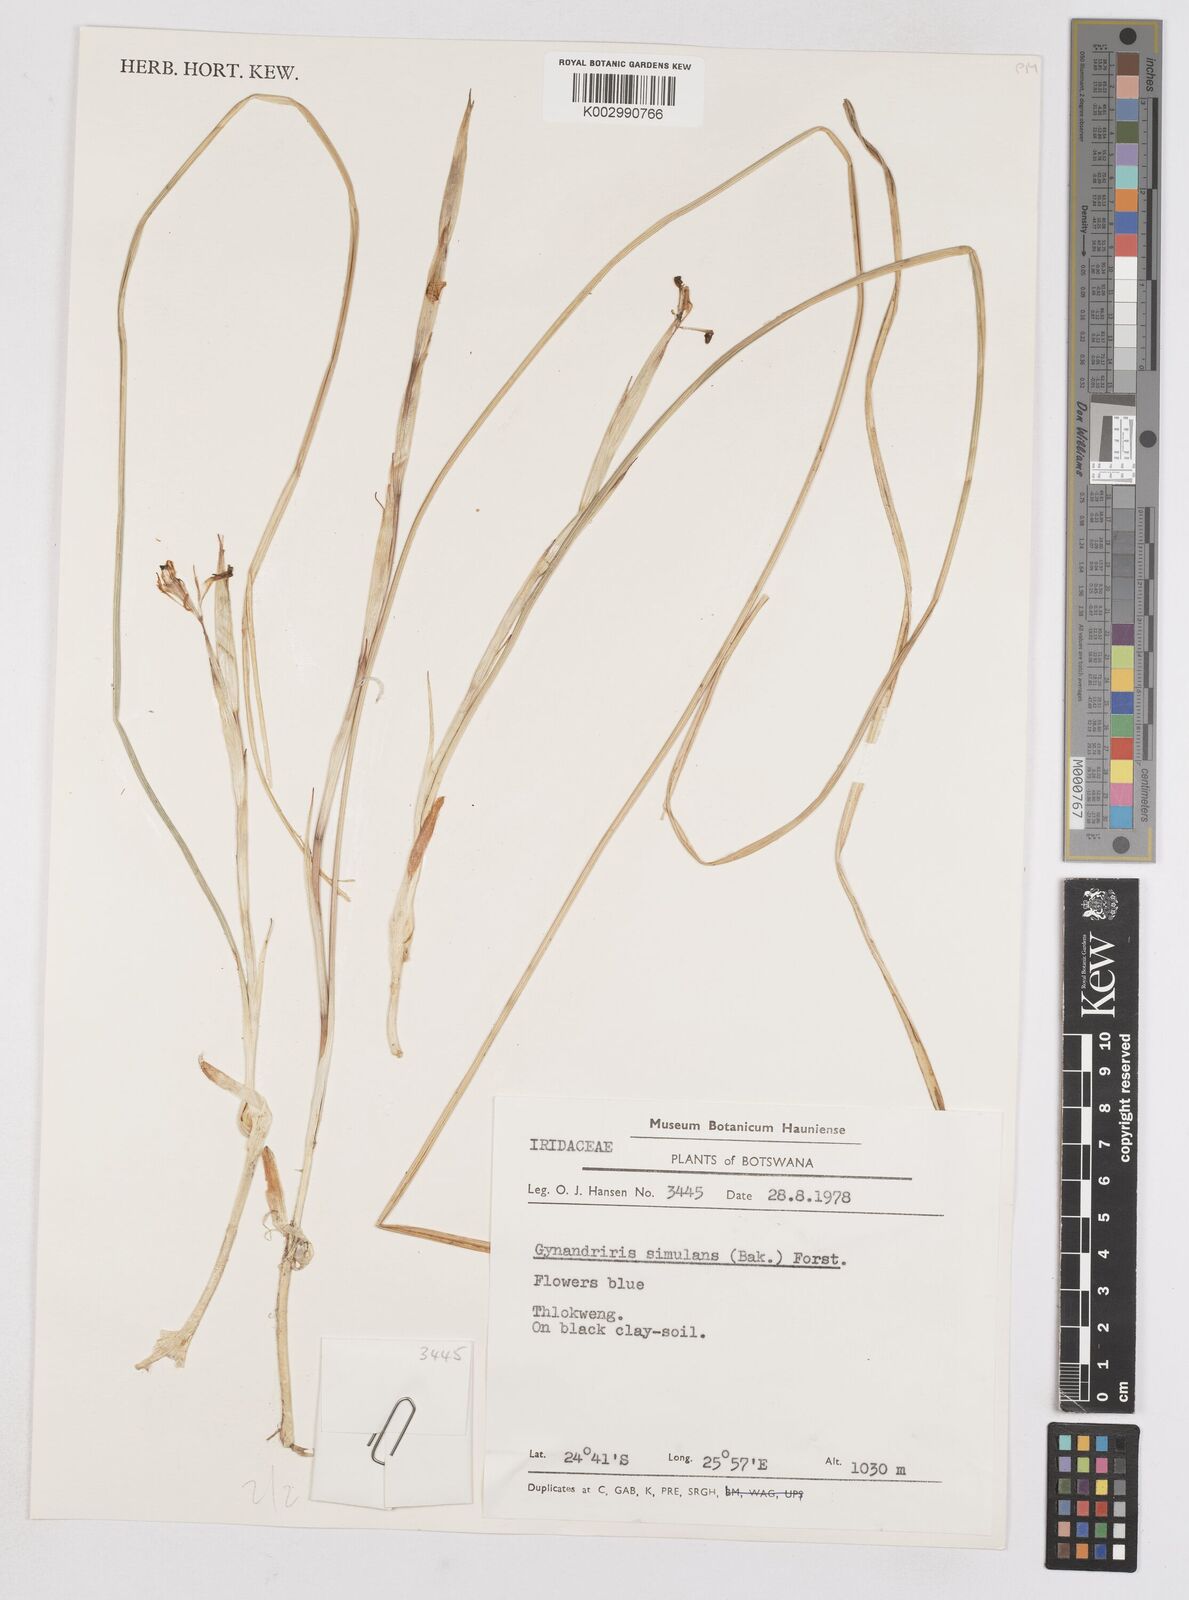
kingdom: Plantae
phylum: Tracheophyta
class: Liliopsida
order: Asparagales
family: Iridaceae
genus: Moraea
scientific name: Moraea simulans
